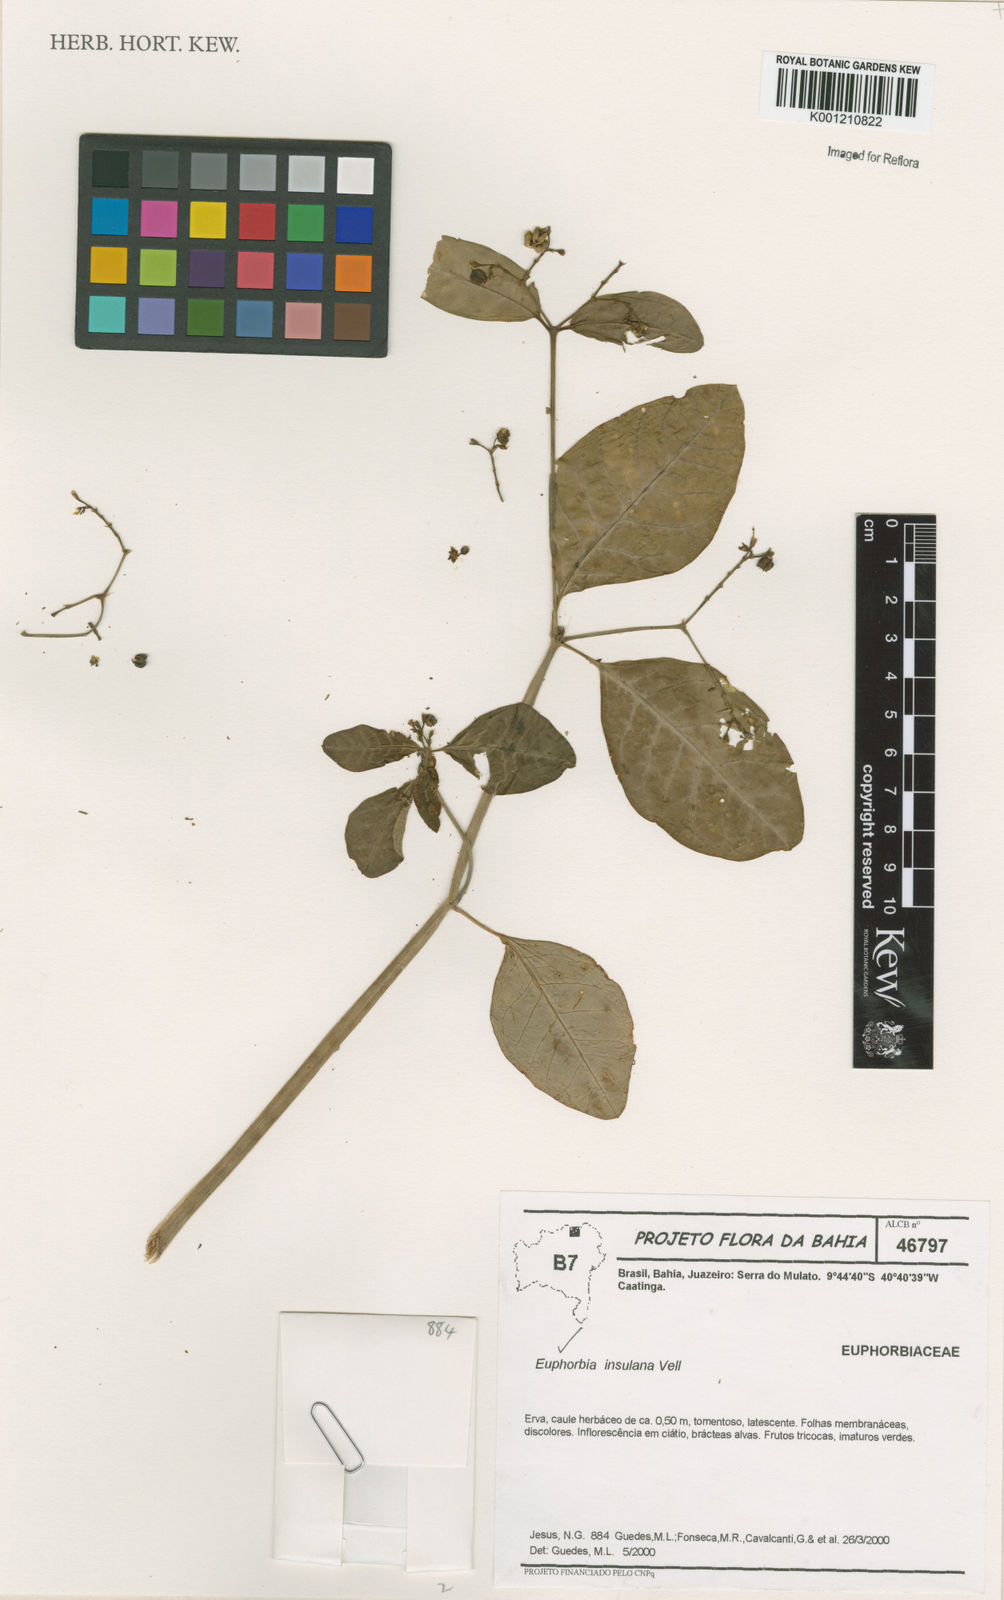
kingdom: Plantae
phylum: Tracheophyta
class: Magnoliopsida
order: Malpighiales
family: Euphorbiaceae
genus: Euphorbia
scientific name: Euphorbia insulana
